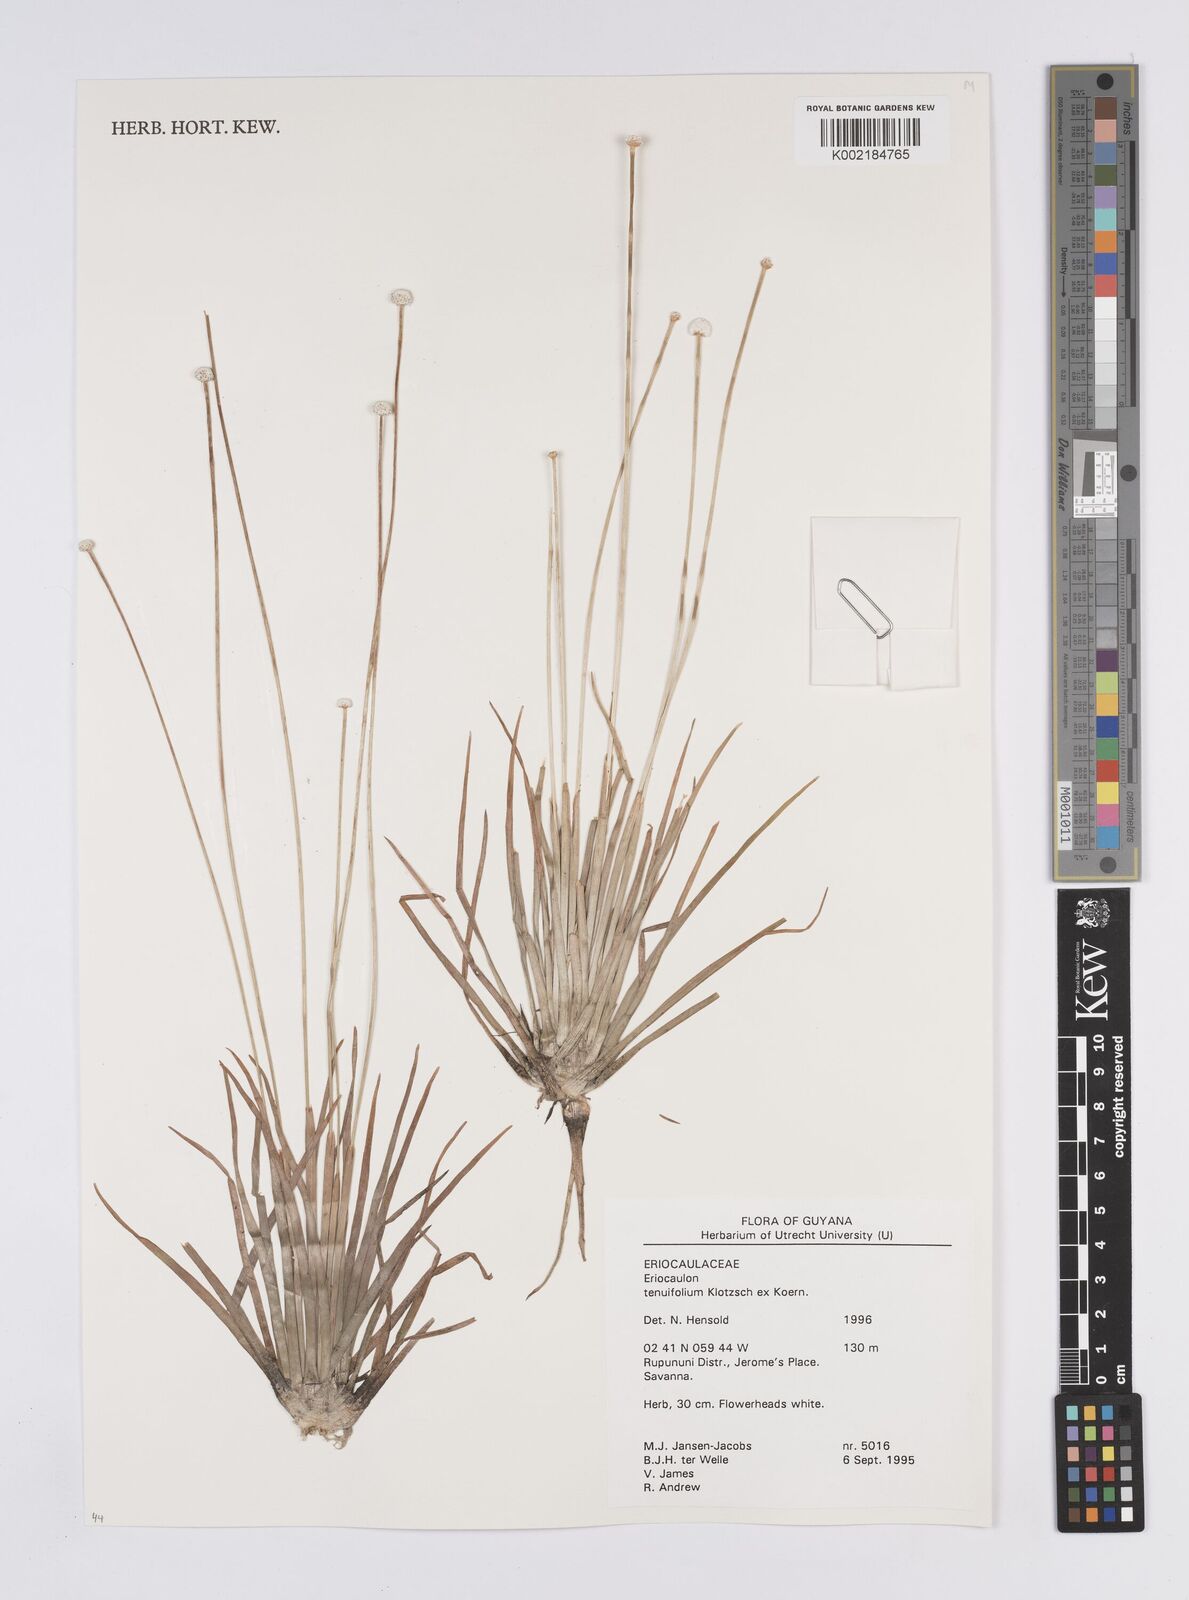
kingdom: Plantae
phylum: Tracheophyta
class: Liliopsida
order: Poales
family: Eriocaulaceae
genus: Eriocaulon
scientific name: Eriocaulon tenuifolium
